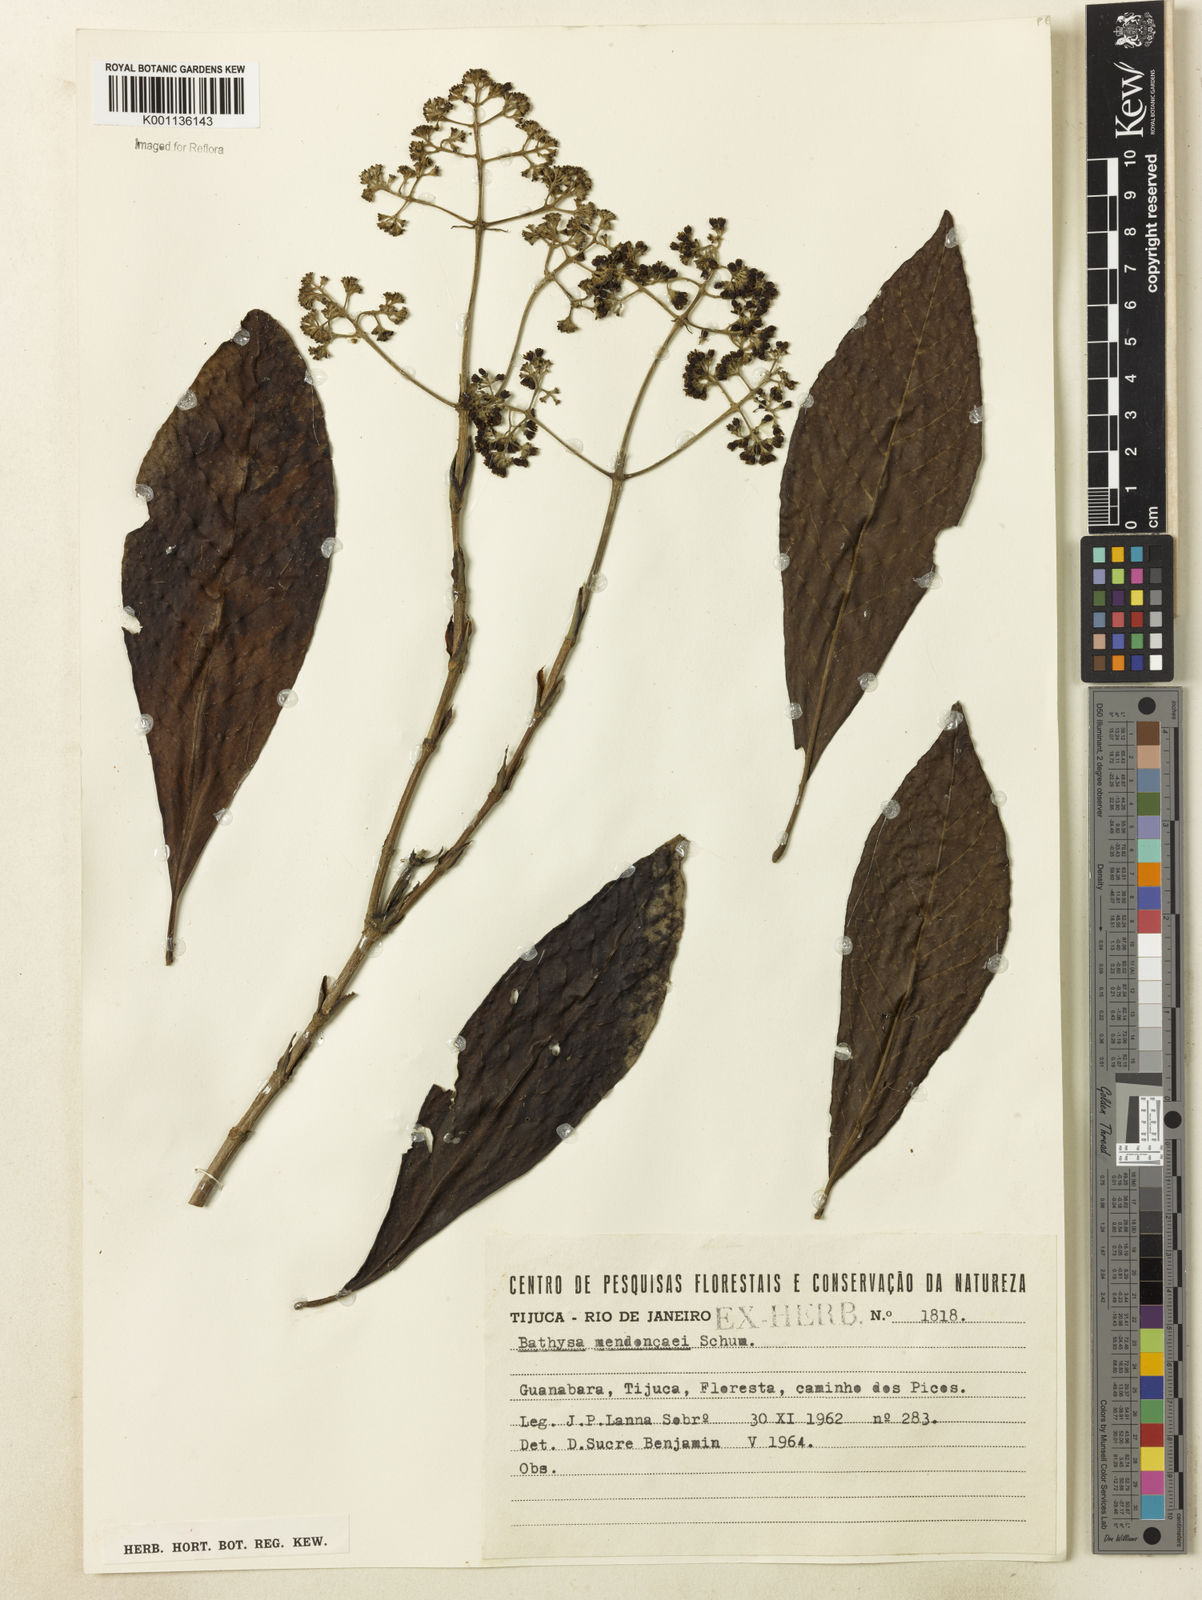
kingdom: Plantae
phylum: Tracheophyta
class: Magnoliopsida
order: Gentianales
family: Rubiaceae
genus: Bathysa
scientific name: Bathysa
